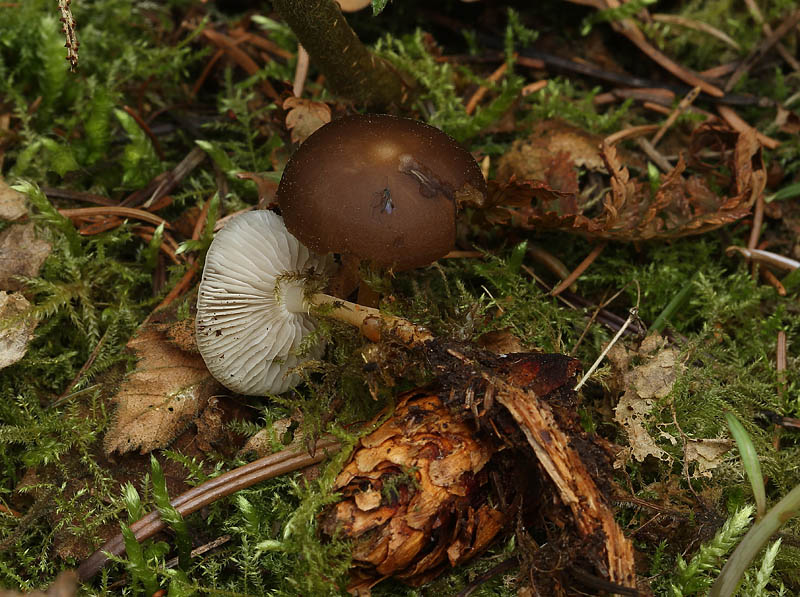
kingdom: Fungi
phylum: Basidiomycota
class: Agaricomycetes
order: Agaricales
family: Physalacriaceae
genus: Strobilurus
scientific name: Strobilurus esculentus
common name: gran-koglehat
